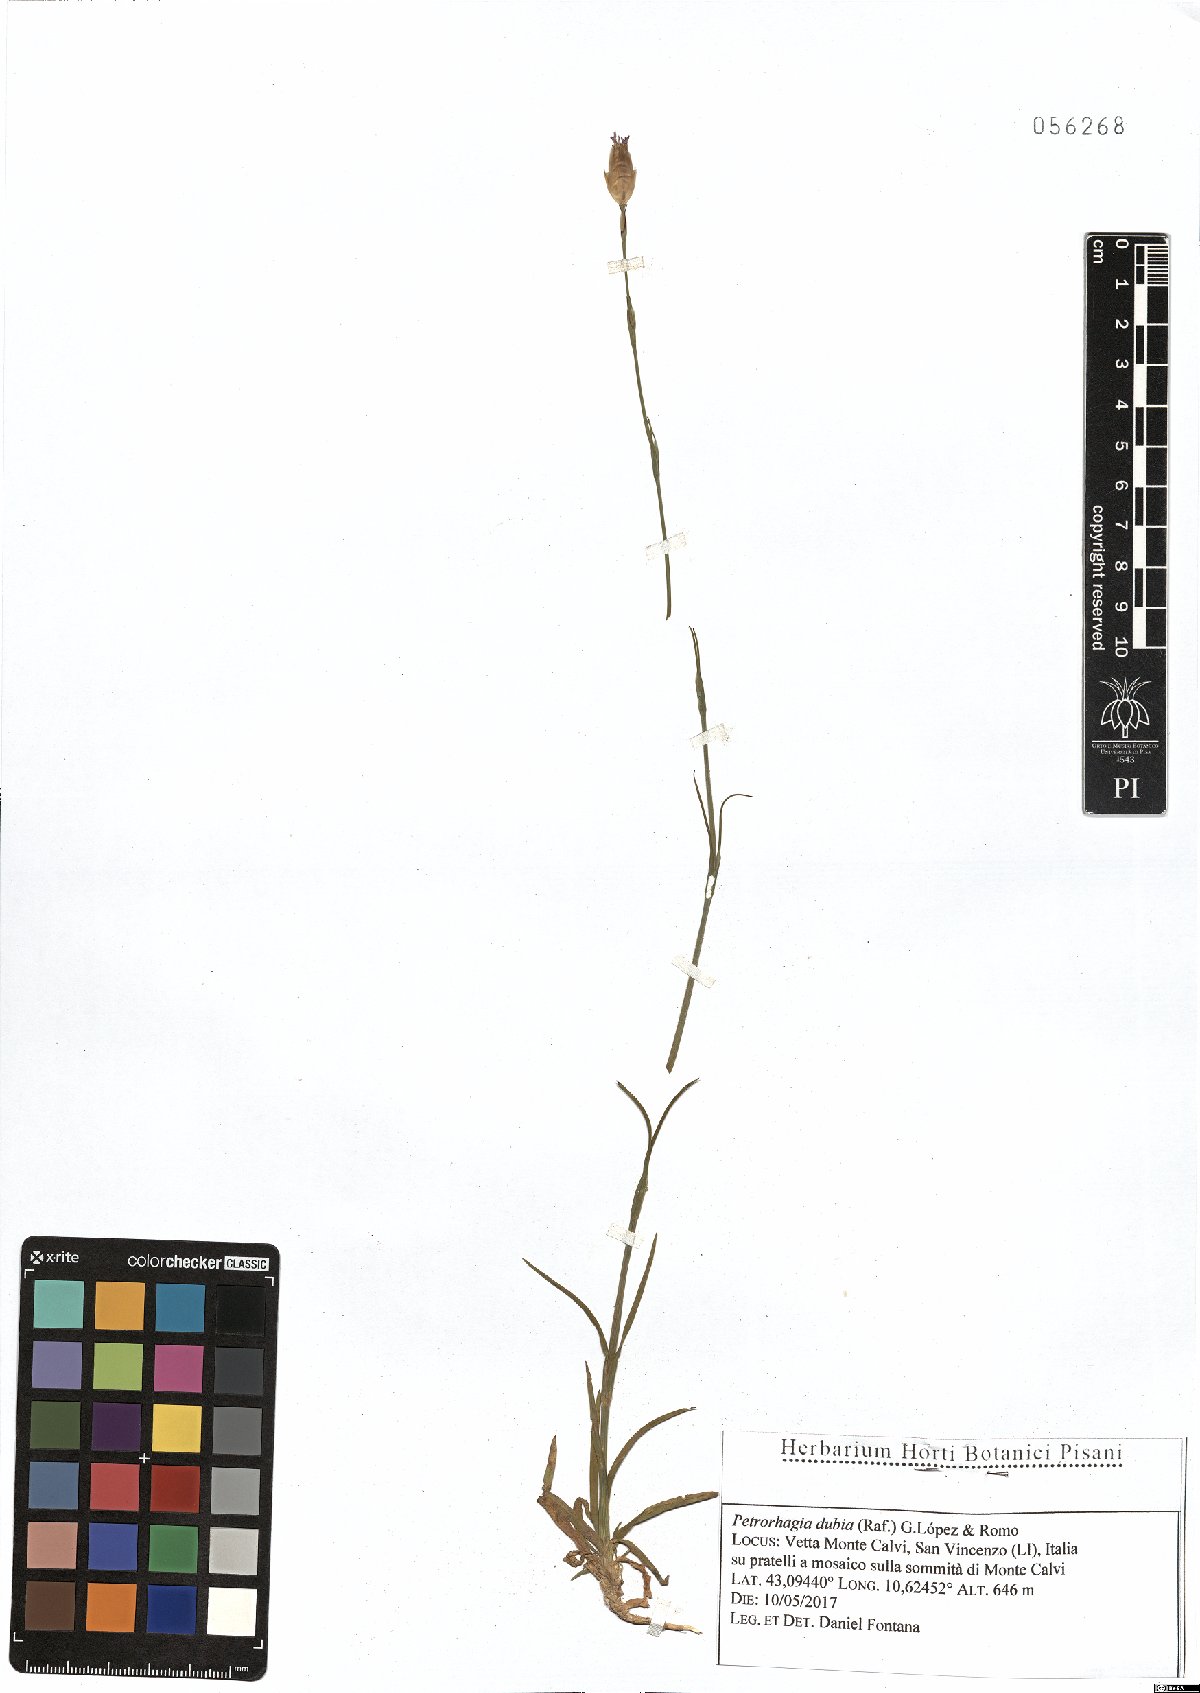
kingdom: Plantae
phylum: Tracheophyta
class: Magnoliopsida
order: Caryophyllales
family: Caryophyllaceae
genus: Petrorhagia
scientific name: Petrorhagia dubia
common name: Hairypink
